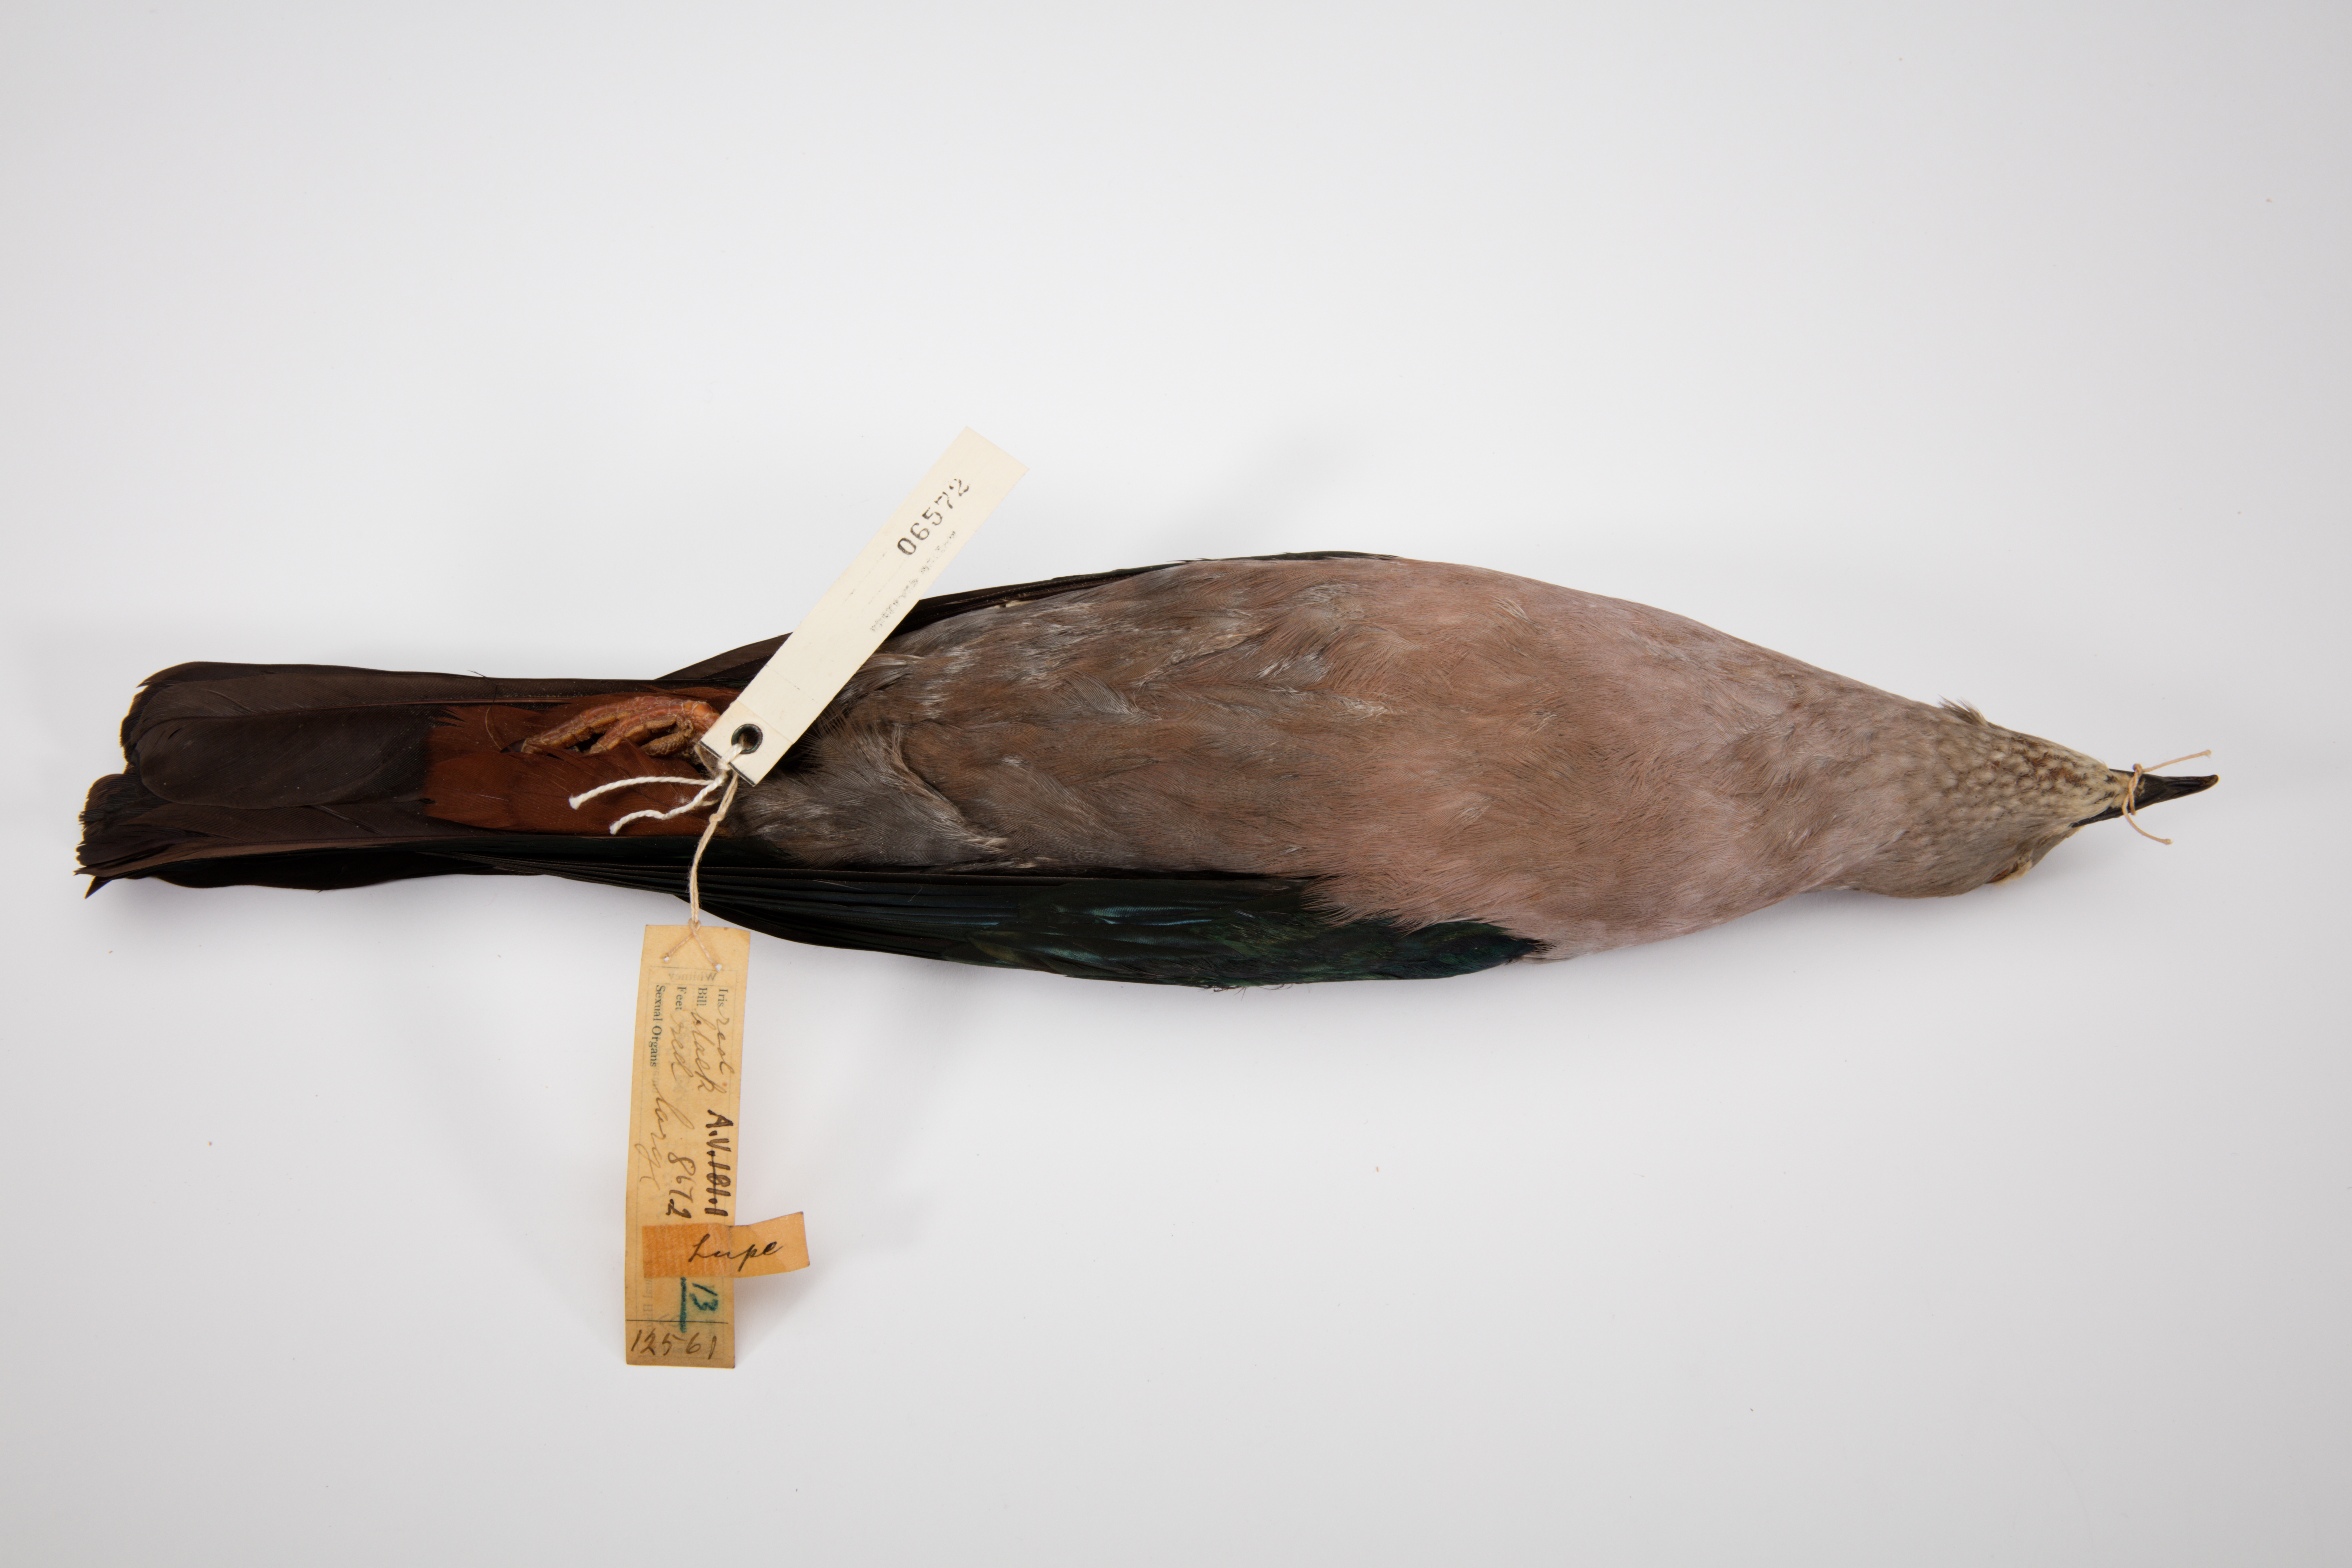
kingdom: Animalia
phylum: Chordata
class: Aves
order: Columbiformes
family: Columbidae
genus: Ducula
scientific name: Ducula pacifica
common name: Pacific imperial-pigeon
